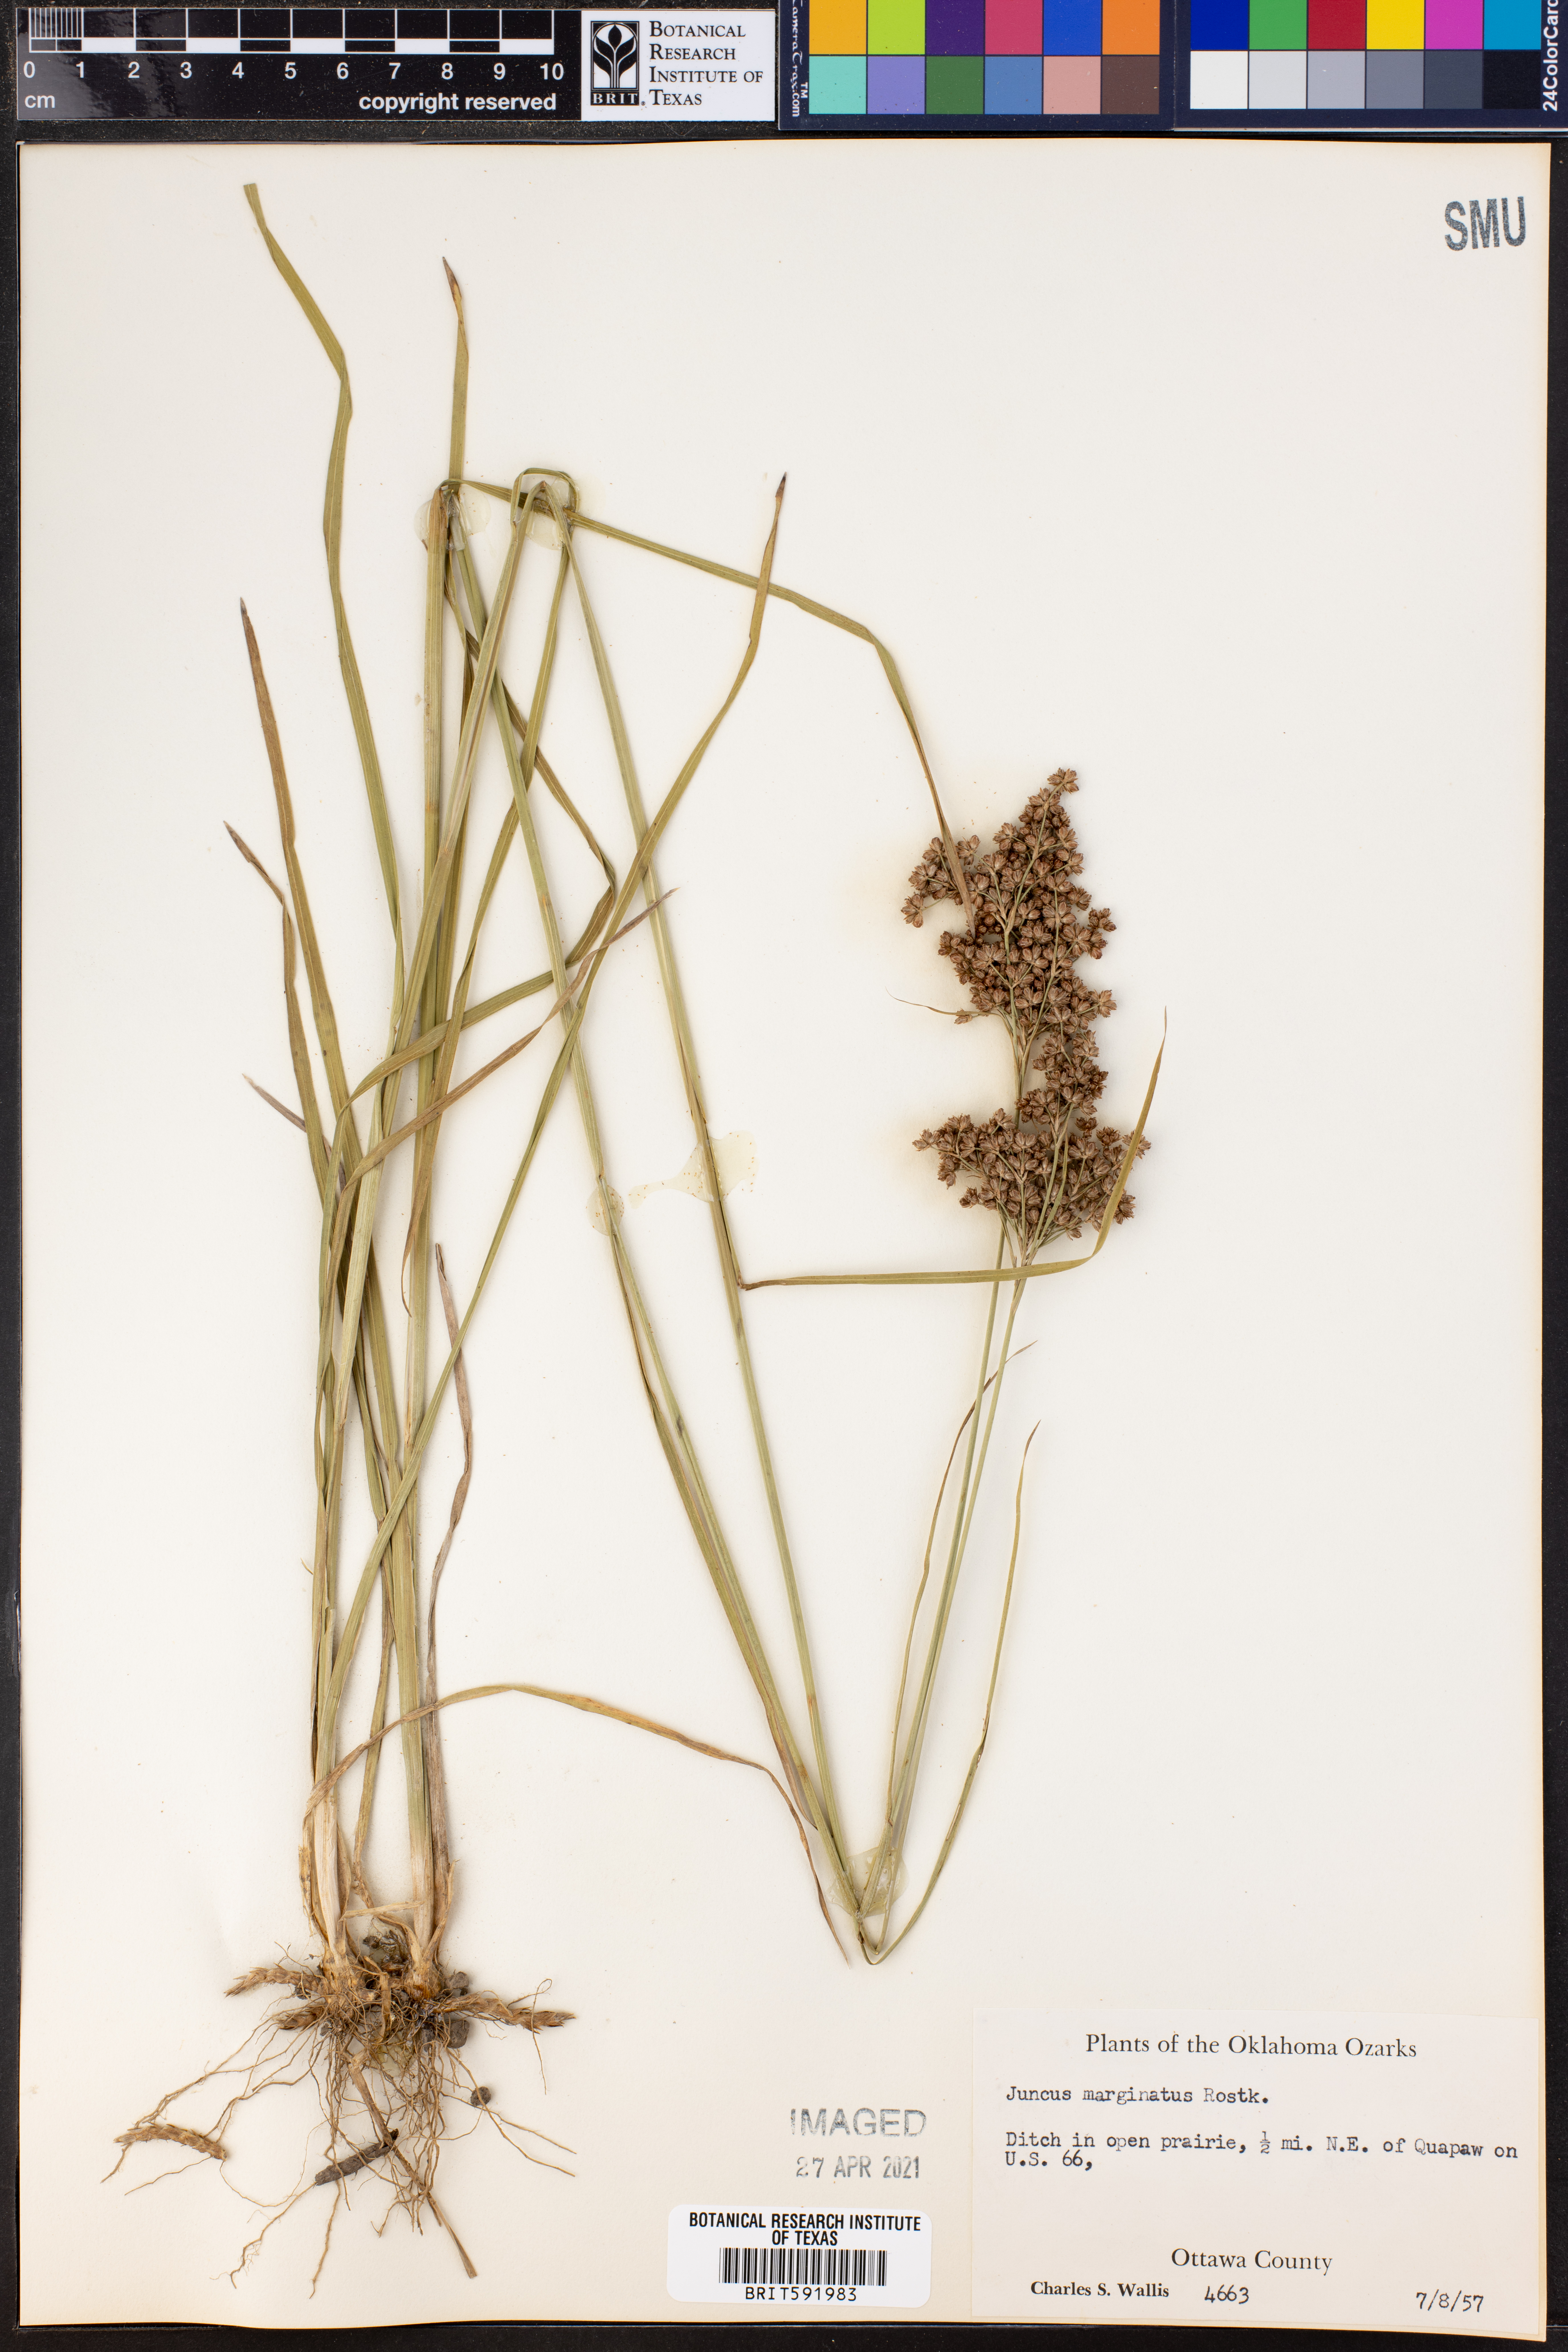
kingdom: Plantae
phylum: Tracheophyta
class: Liliopsida
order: Poales
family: Juncaceae
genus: Juncus
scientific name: Juncus marginatus
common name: Grass-leaf rush
